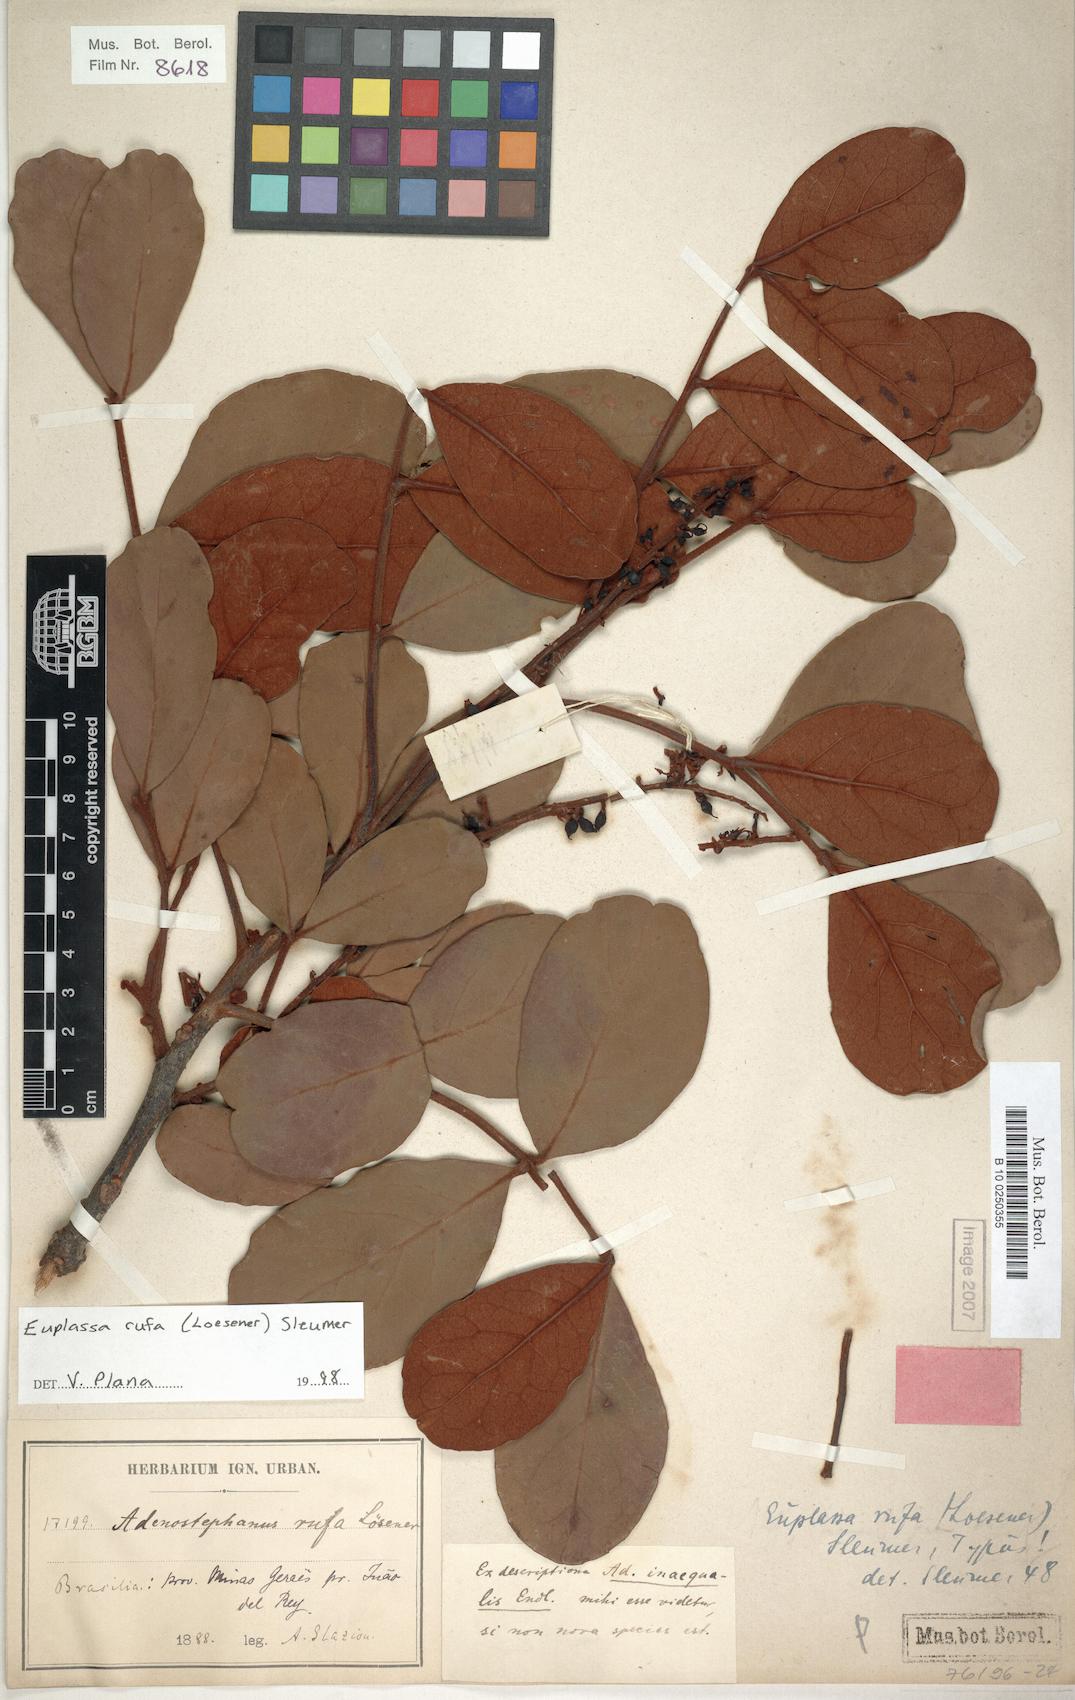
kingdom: Plantae
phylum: Tracheophyta
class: Magnoliopsida
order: Proteales
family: Proteaceae
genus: Euplassa
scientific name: Euplassa rufa
